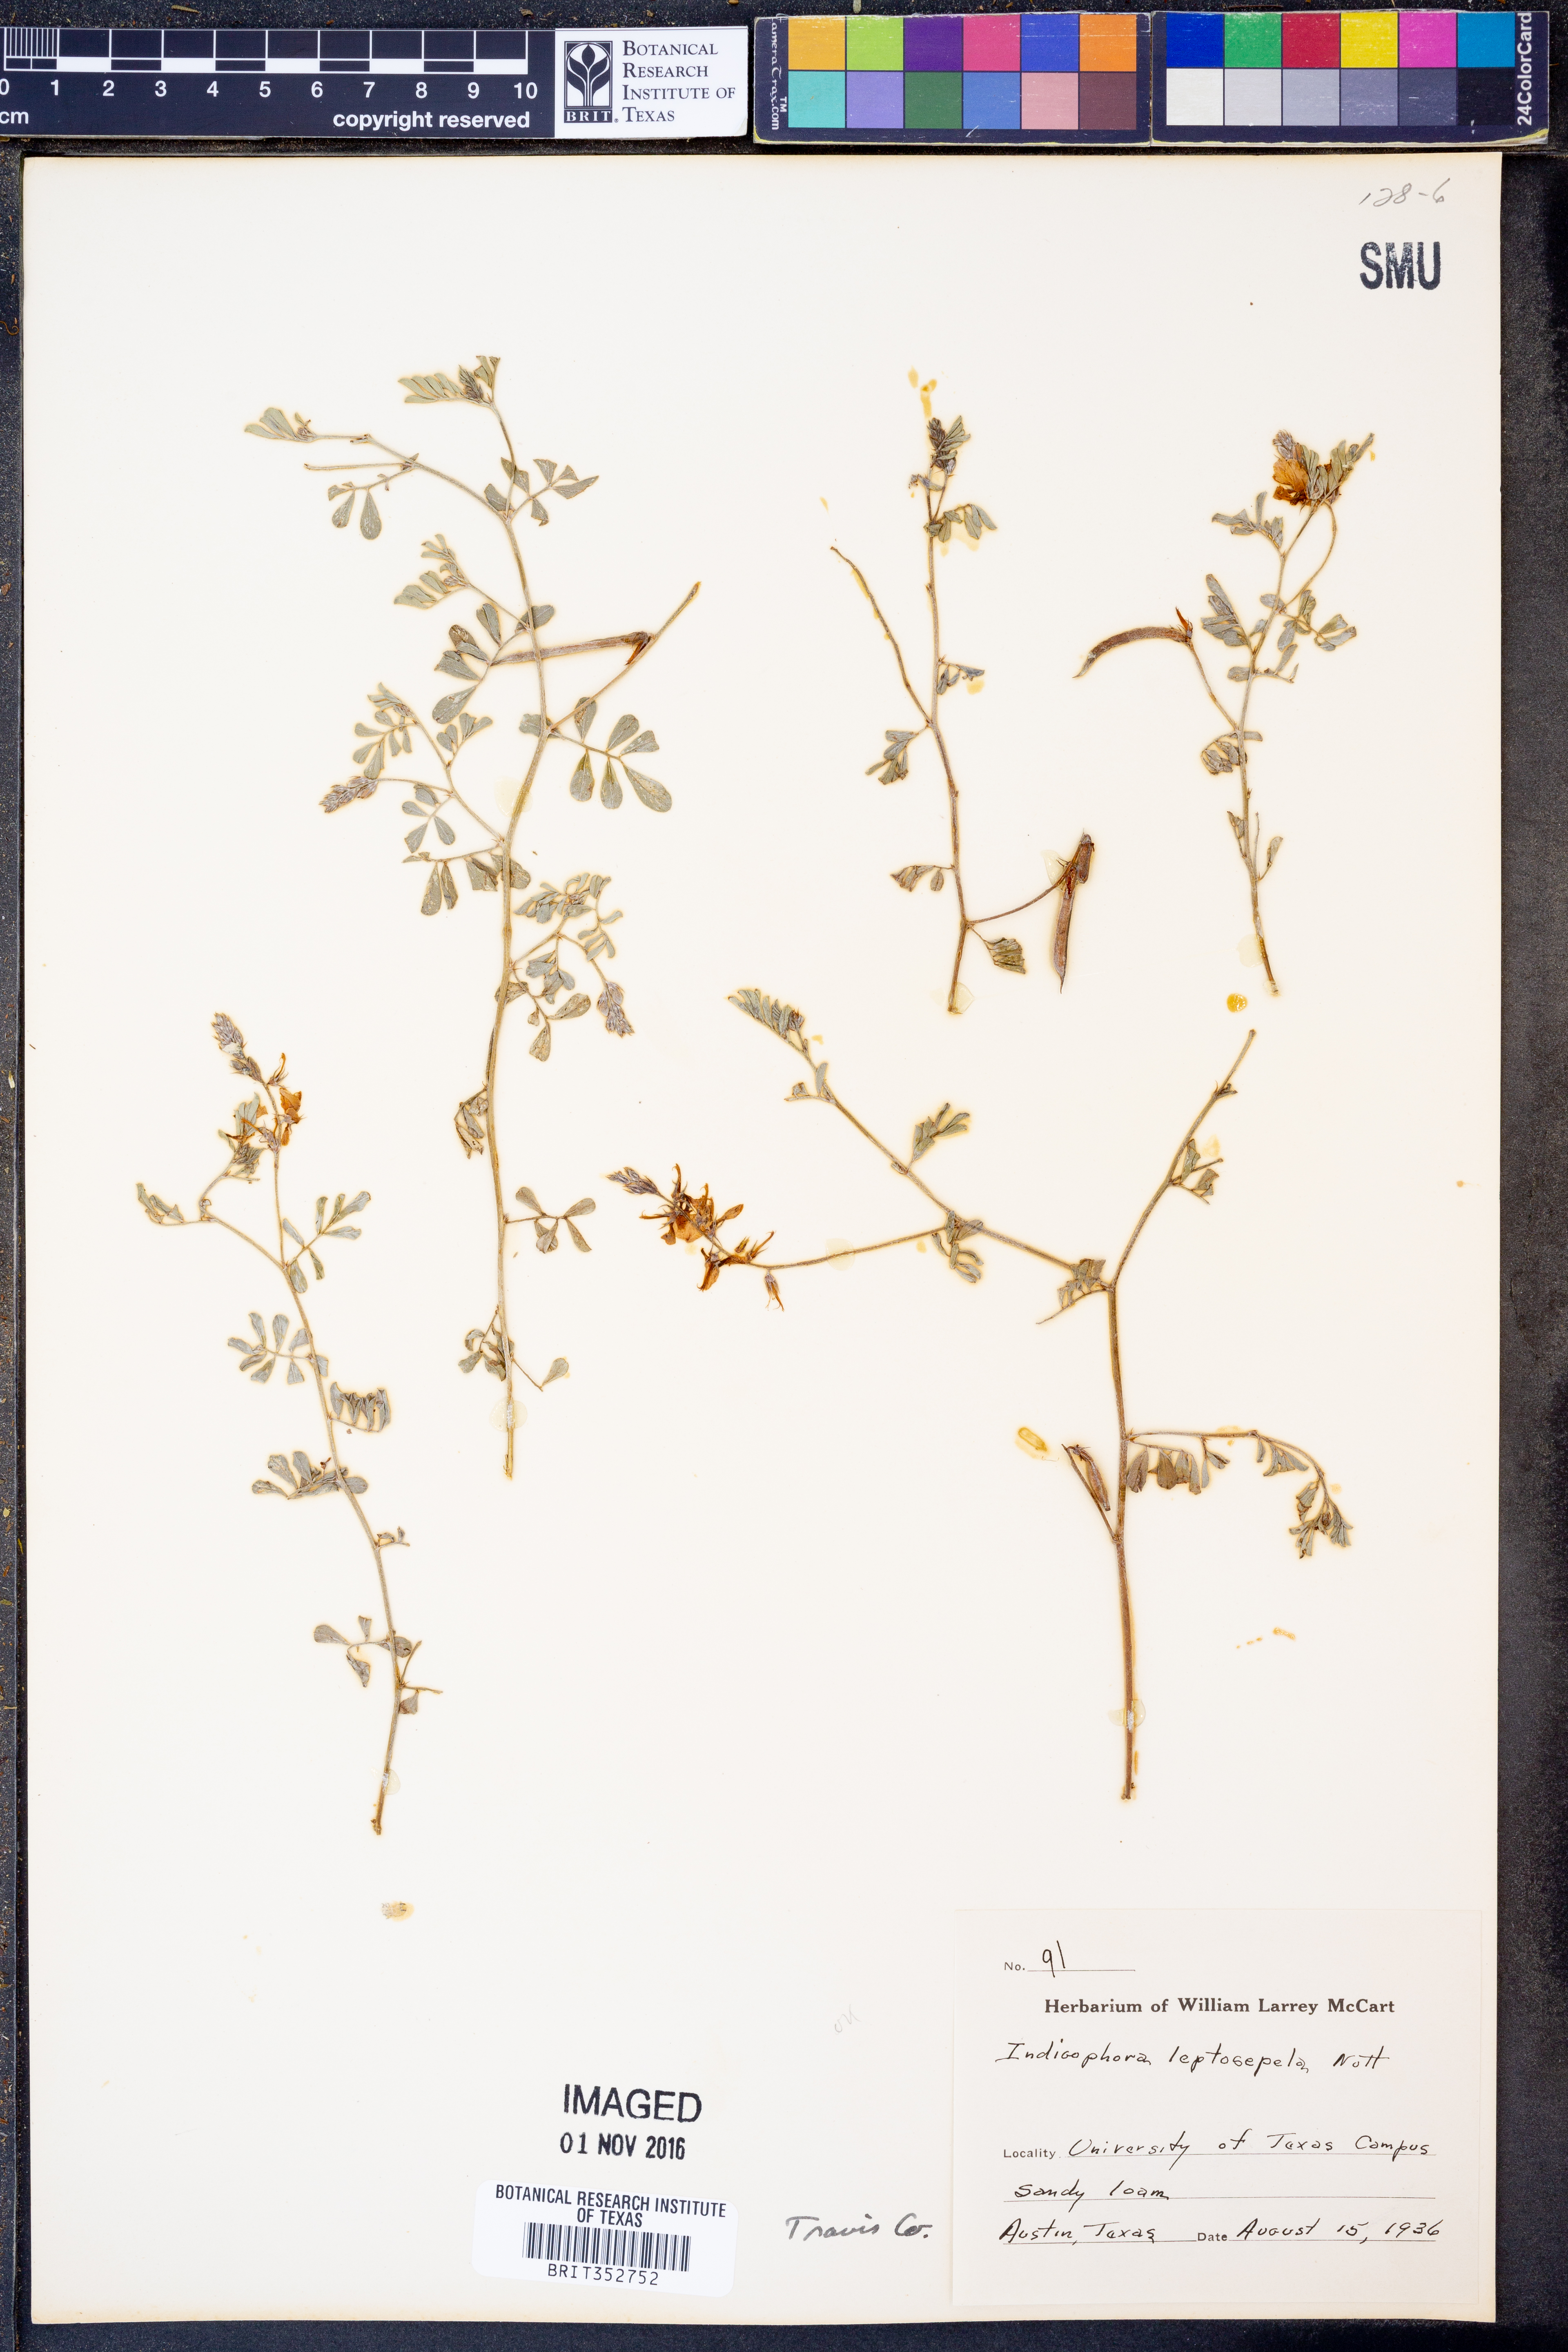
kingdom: Plantae
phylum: Tracheophyta
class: Magnoliopsida
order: Fabales
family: Fabaceae
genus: Indigofera
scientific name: Indigofera argutidens
